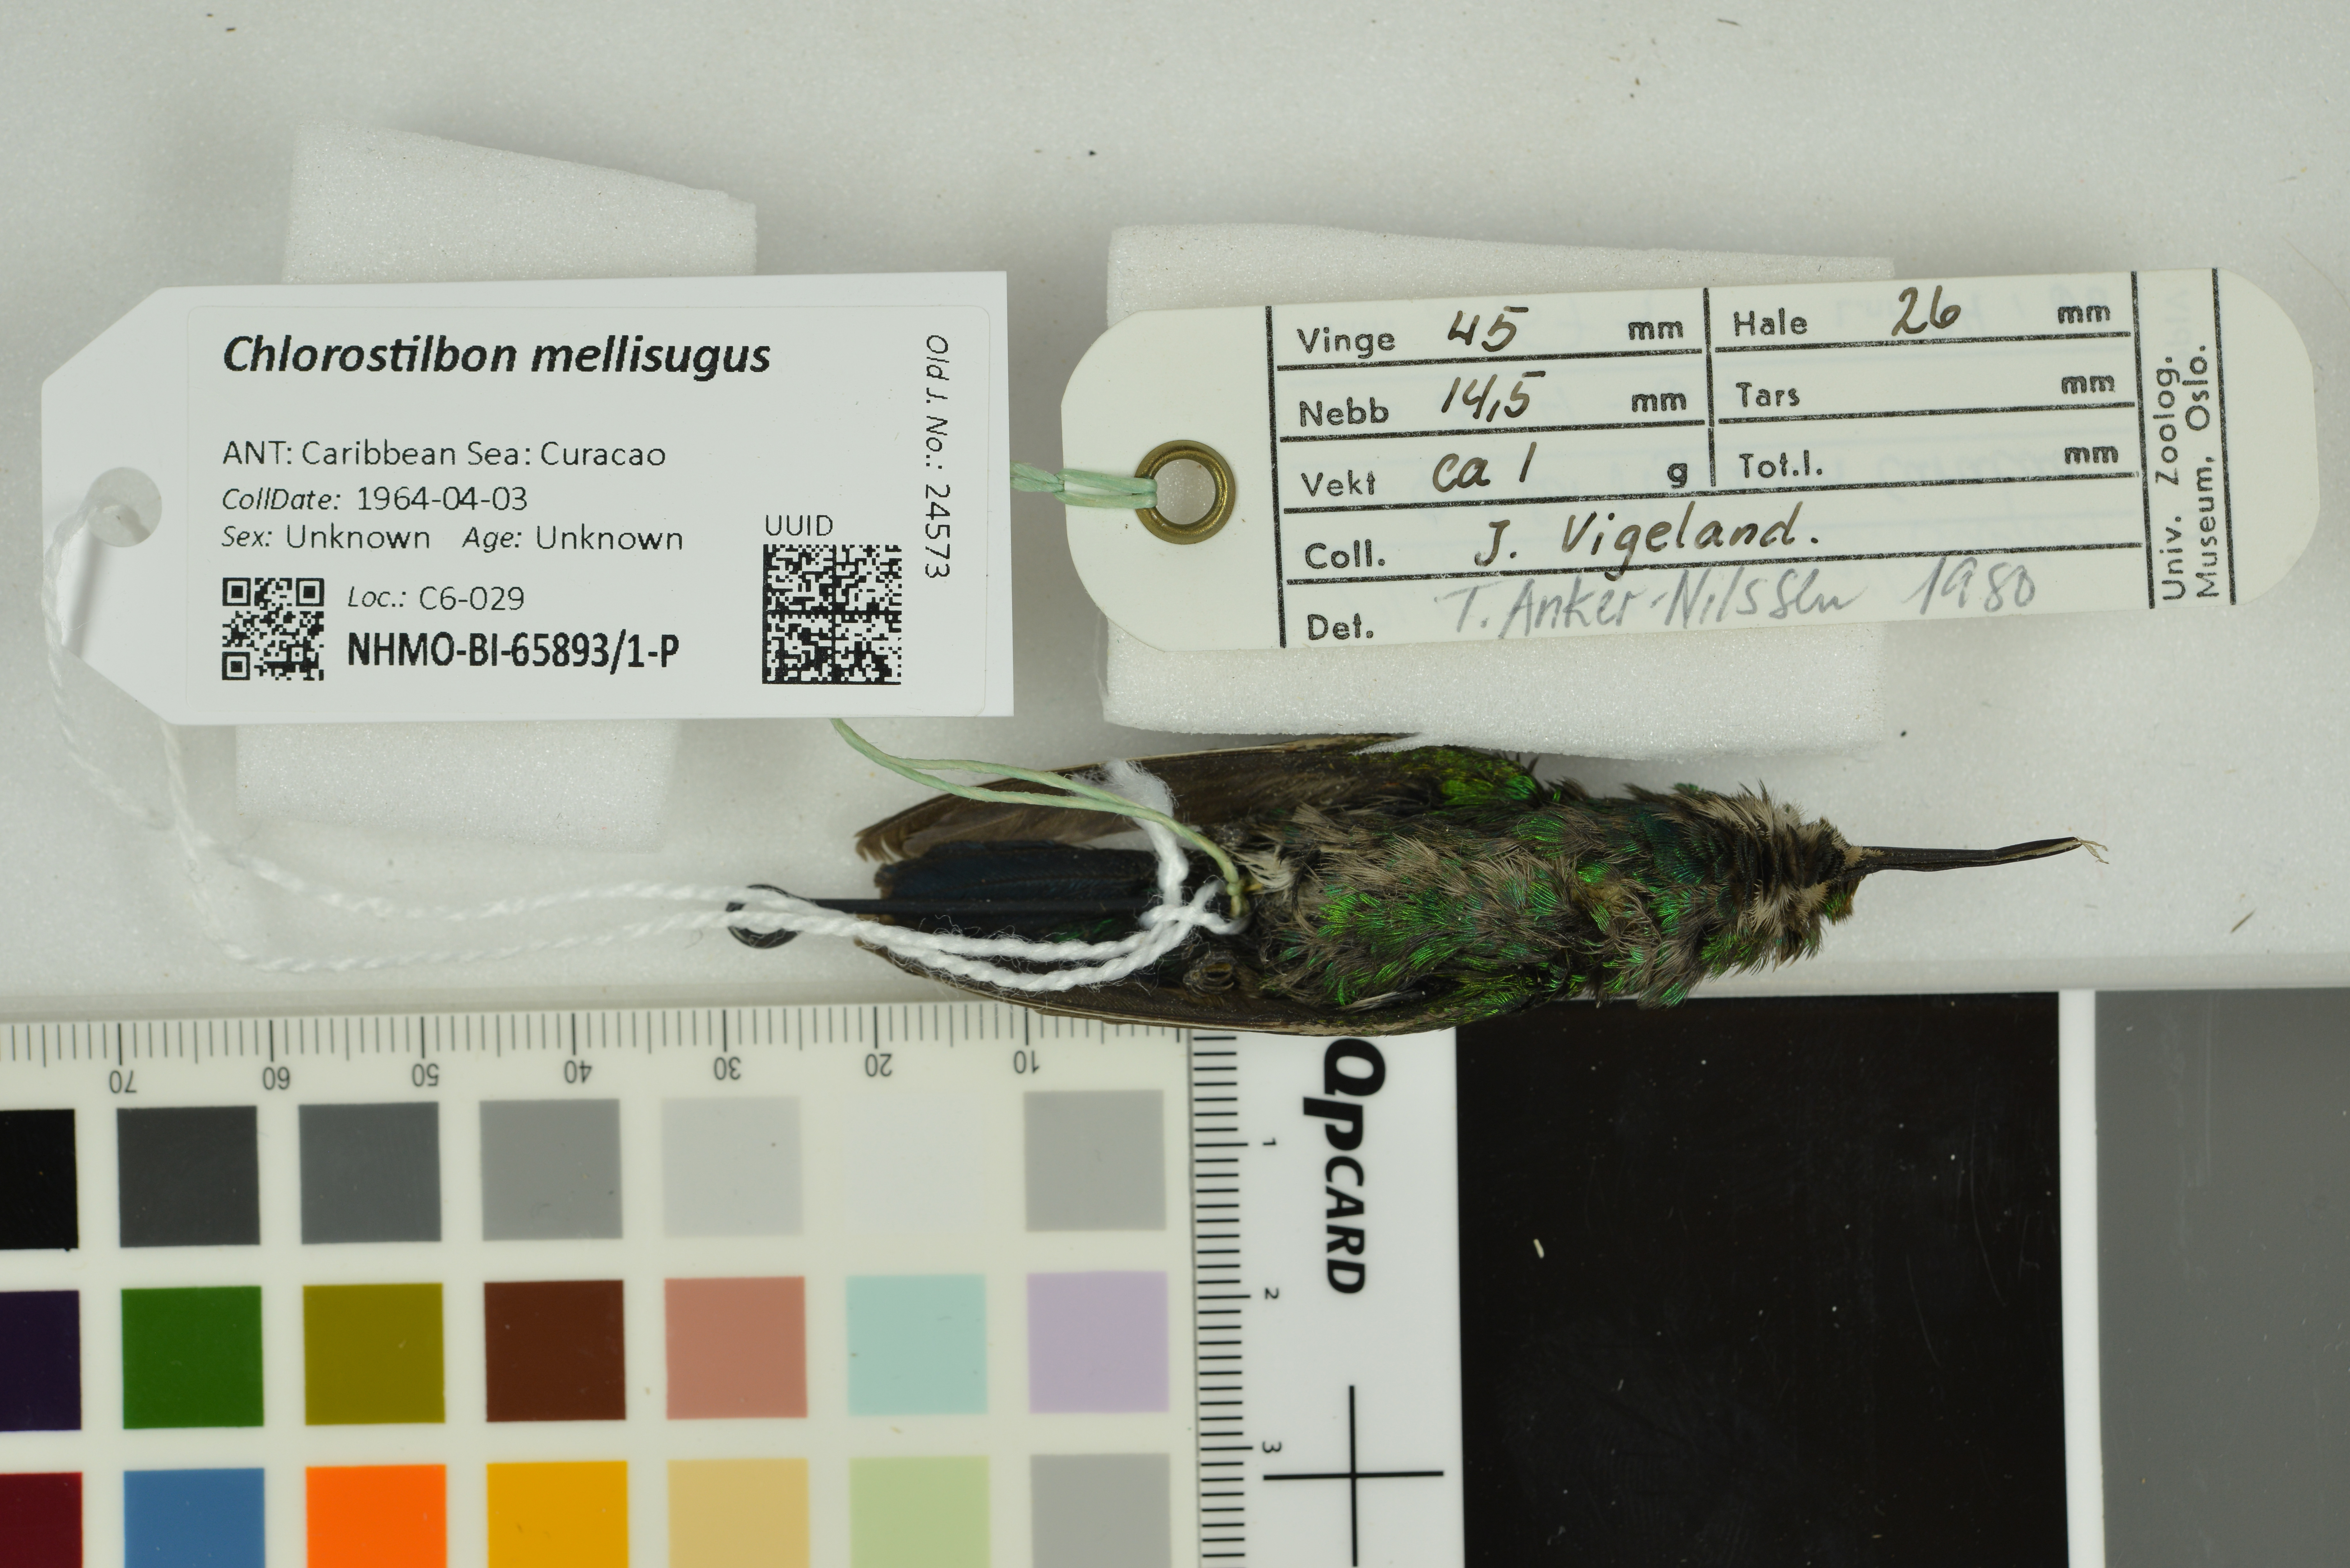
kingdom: Animalia
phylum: Chordata
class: Aves
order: Apodiformes
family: Trochilidae
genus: Chlorostilbon
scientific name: Chlorostilbon mellisugus
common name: Blue-tailed emerald
